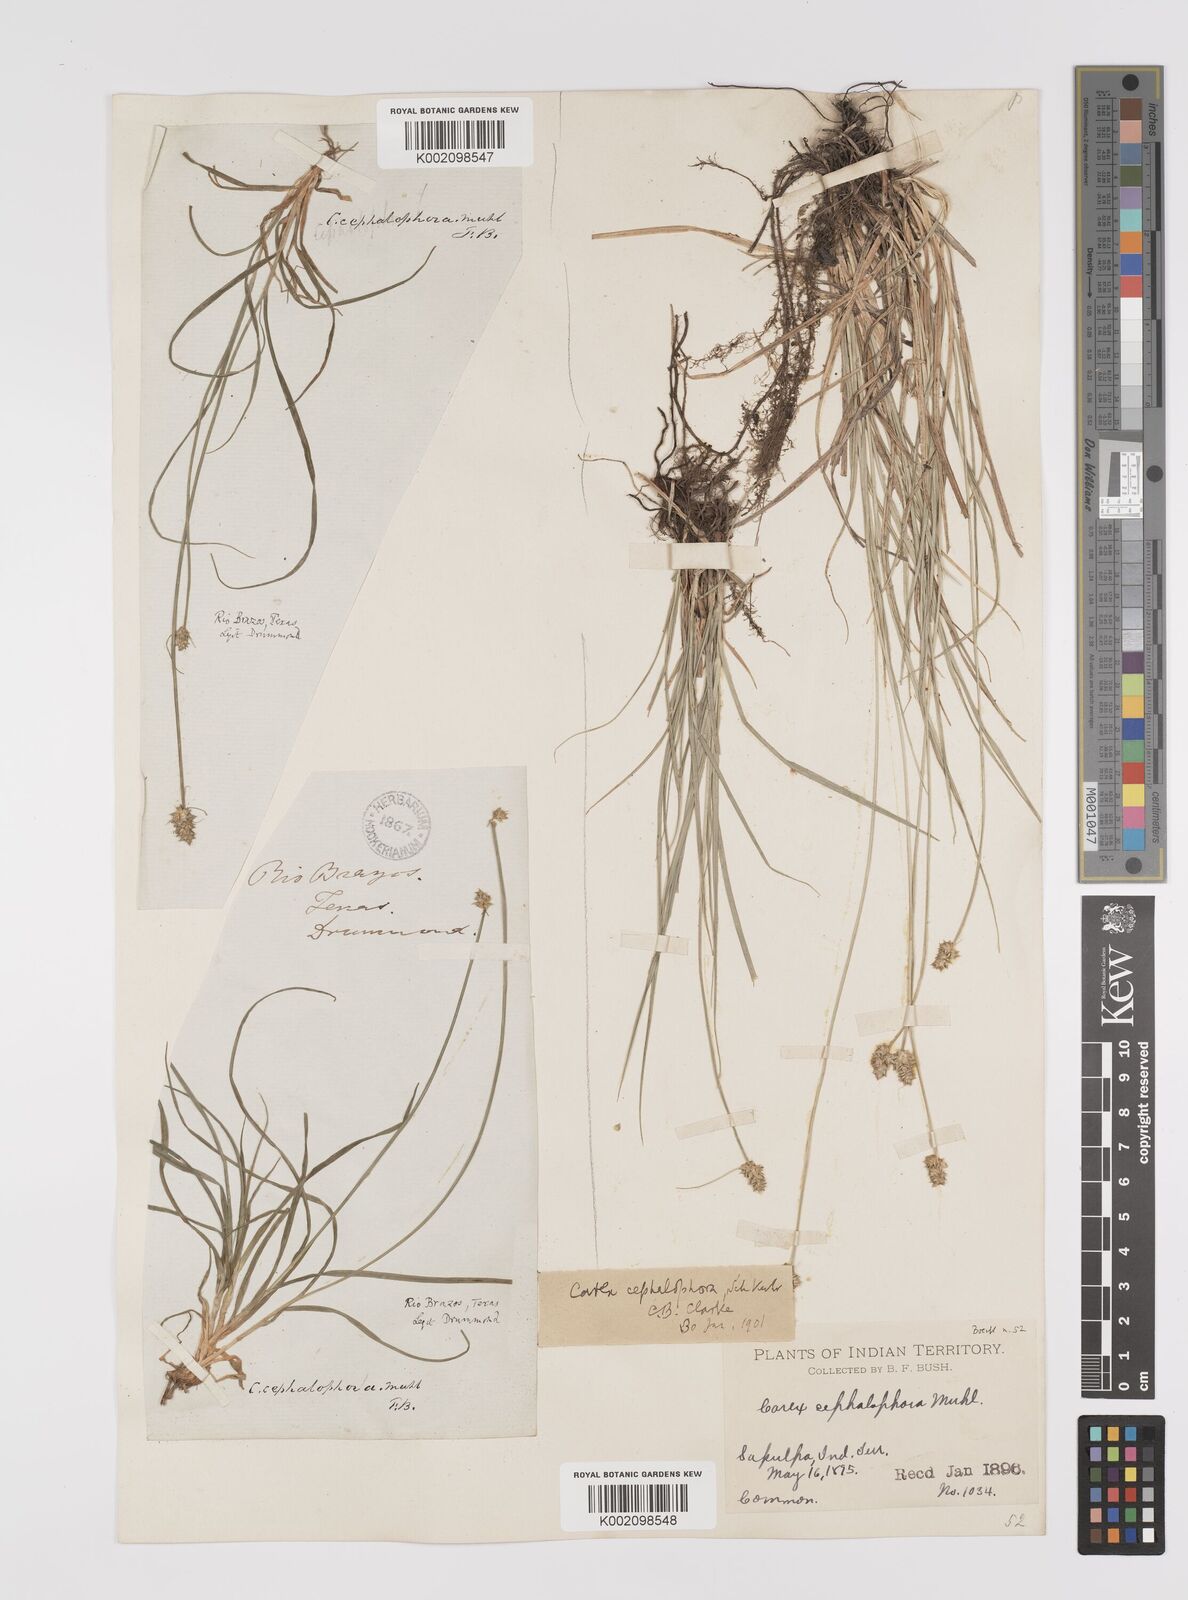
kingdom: Plantae
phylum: Tracheophyta
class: Liliopsida
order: Poales
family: Cyperaceae
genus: Carex
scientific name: Carex cephalophora
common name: Oval-headed sedge
